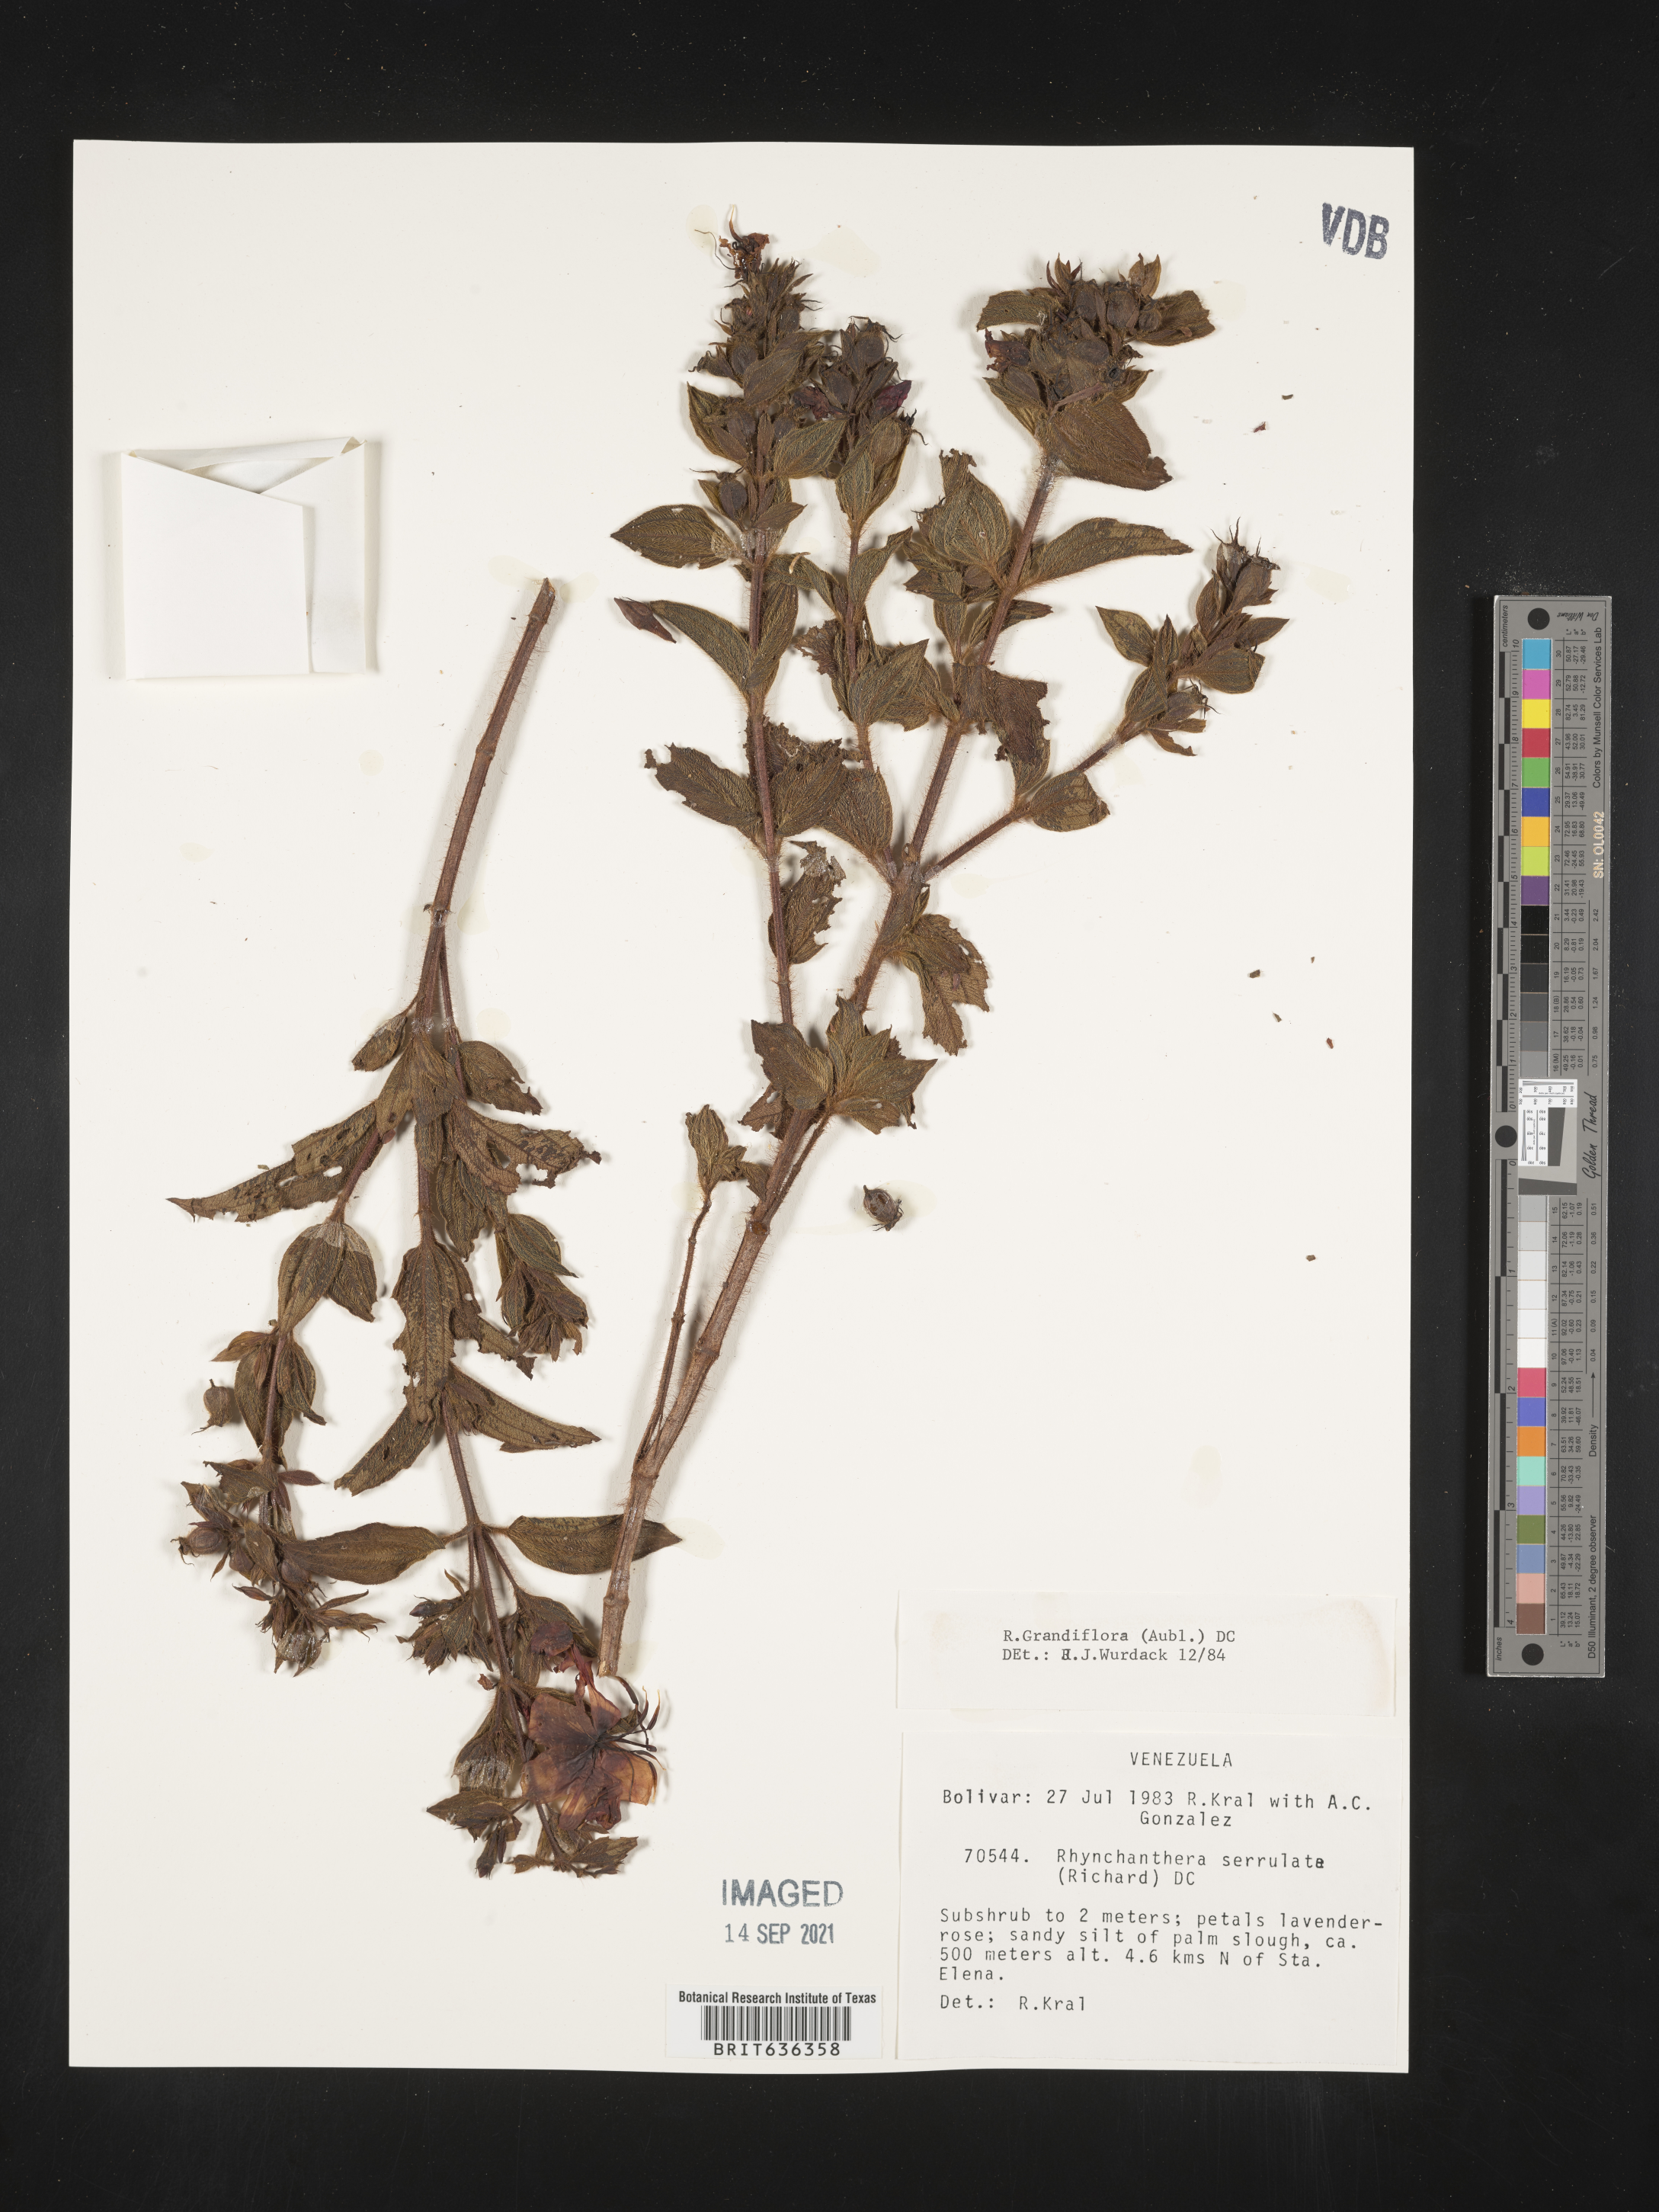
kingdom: Plantae
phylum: Tracheophyta
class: Magnoliopsida
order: Myrtales
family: Melastomataceae
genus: Rhynchanthera
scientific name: Rhynchanthera
